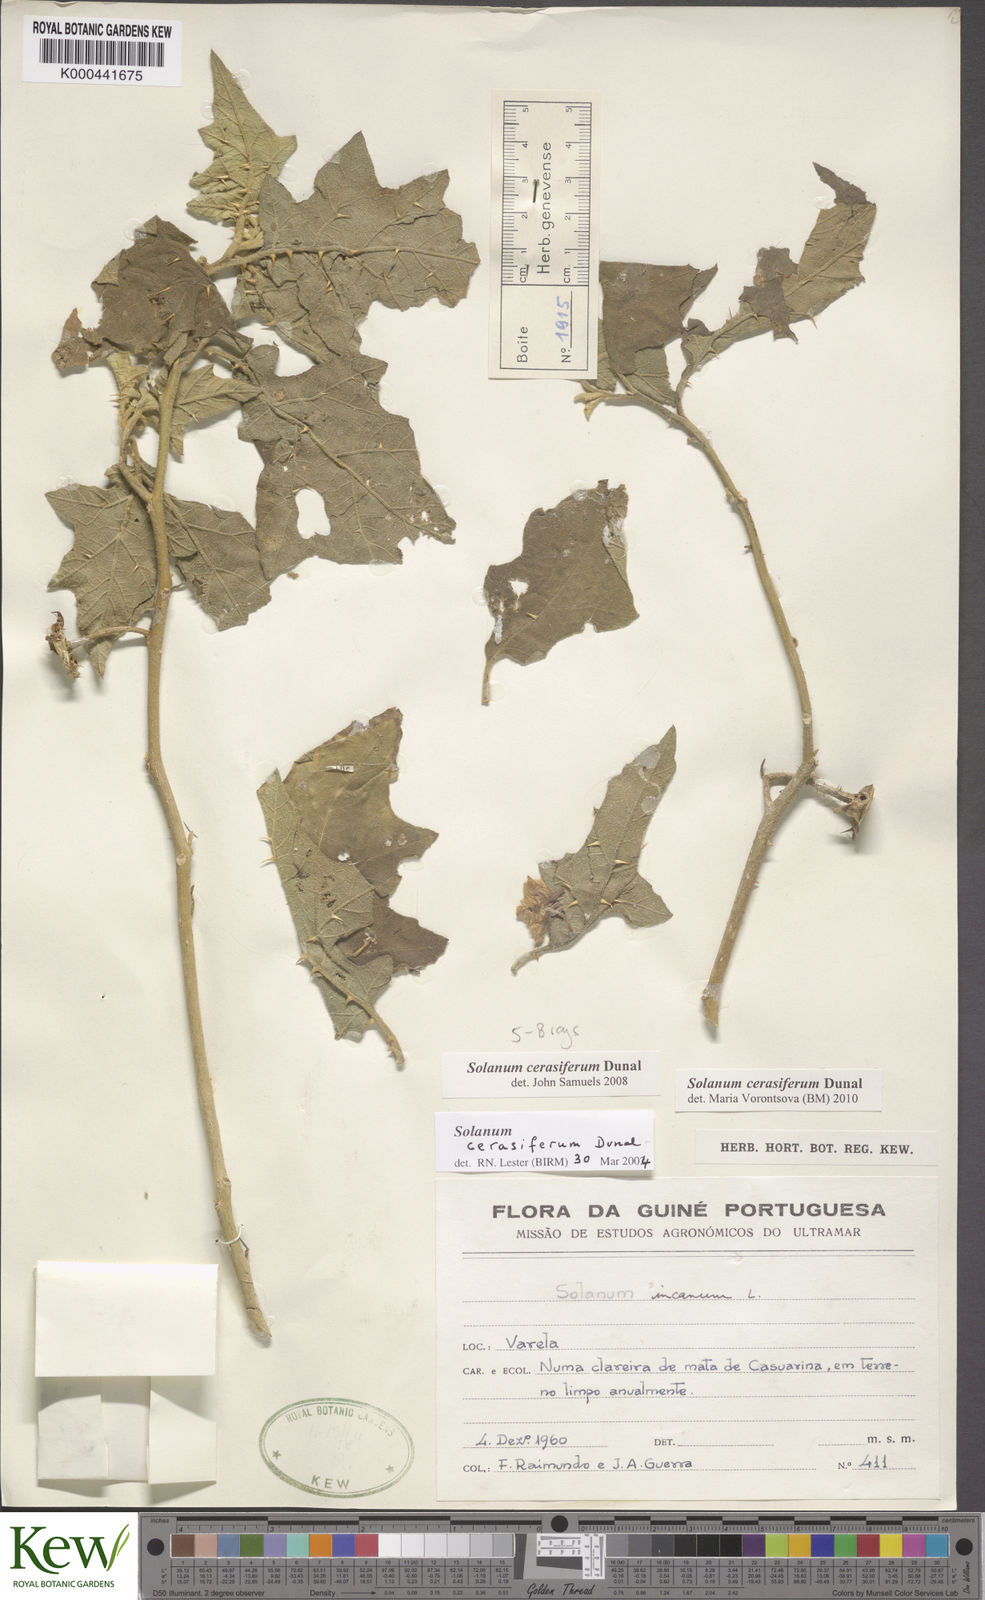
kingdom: Plantae
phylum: Tracheophyta
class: Magnoliopsida
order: Solanales
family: Solanaceae
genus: Solanum
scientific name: Solanum cerasiferum
